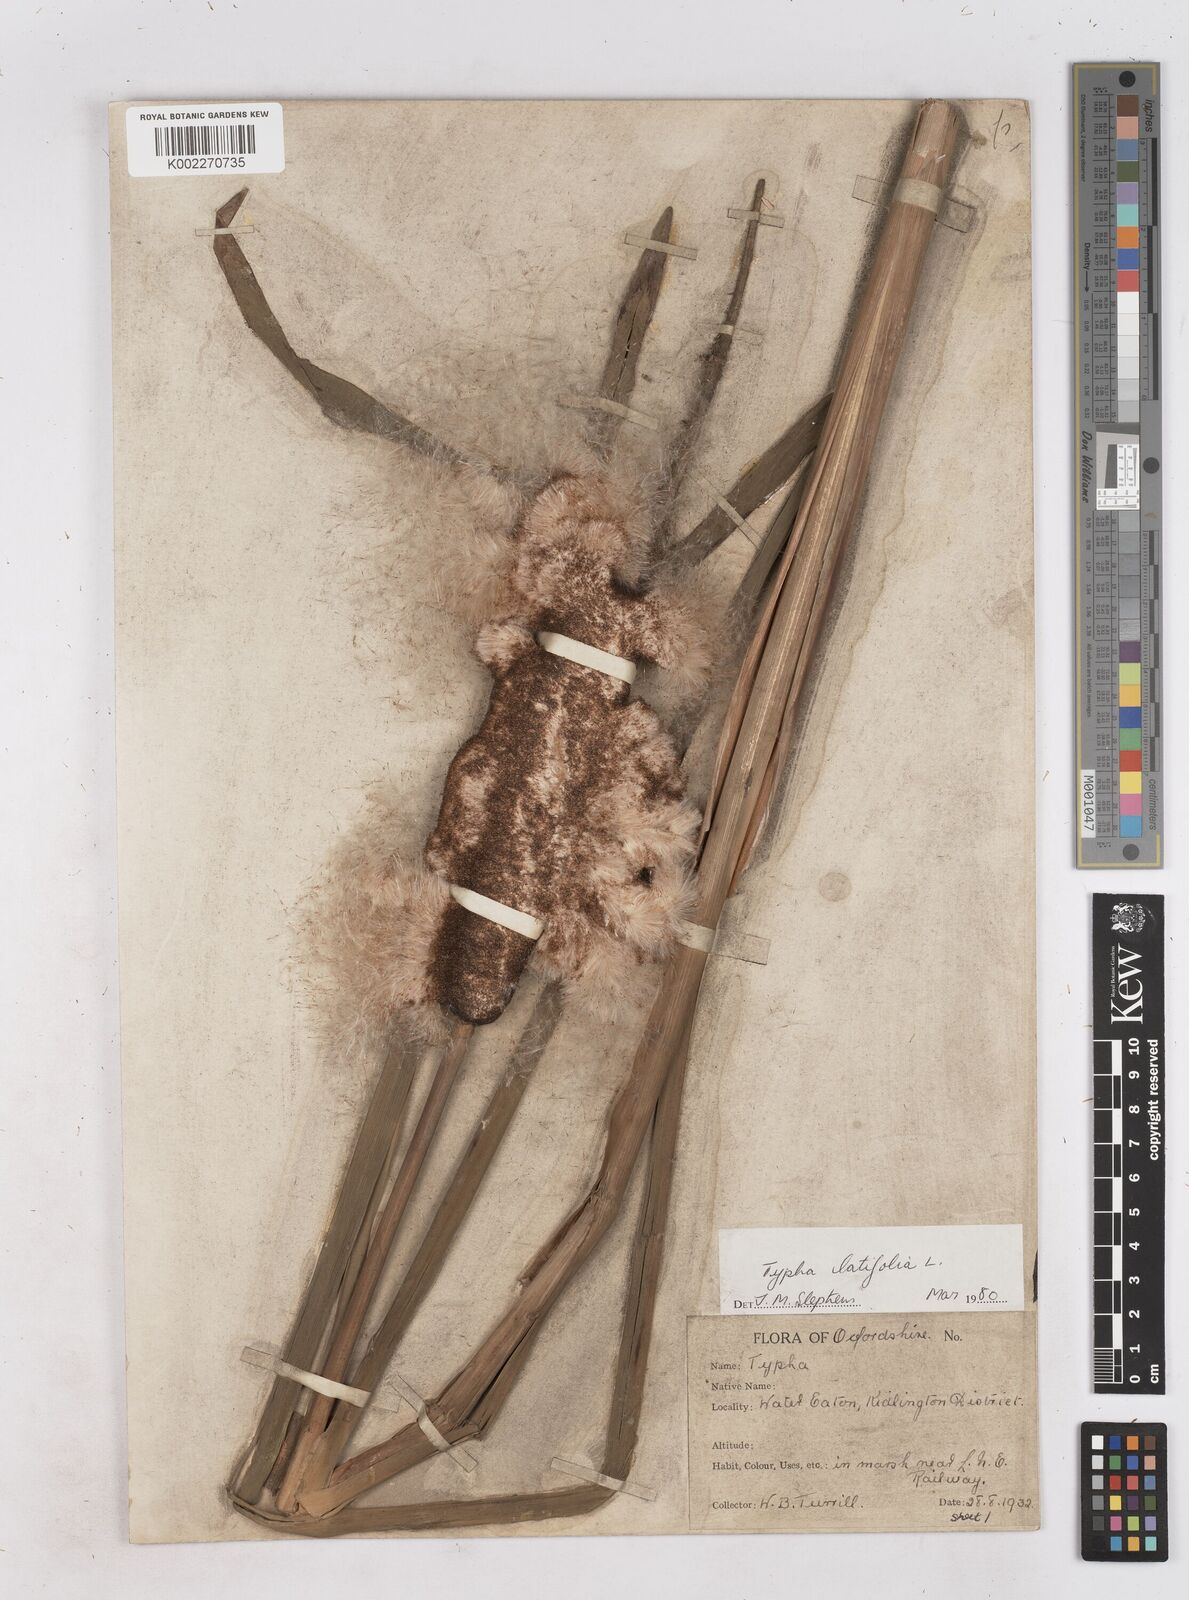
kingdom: Plantae
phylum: Tracheophyta
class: Liliopsida
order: Poales
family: Typhaceae
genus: Typha
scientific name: Typha latifolia
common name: Broadleaf cattail
